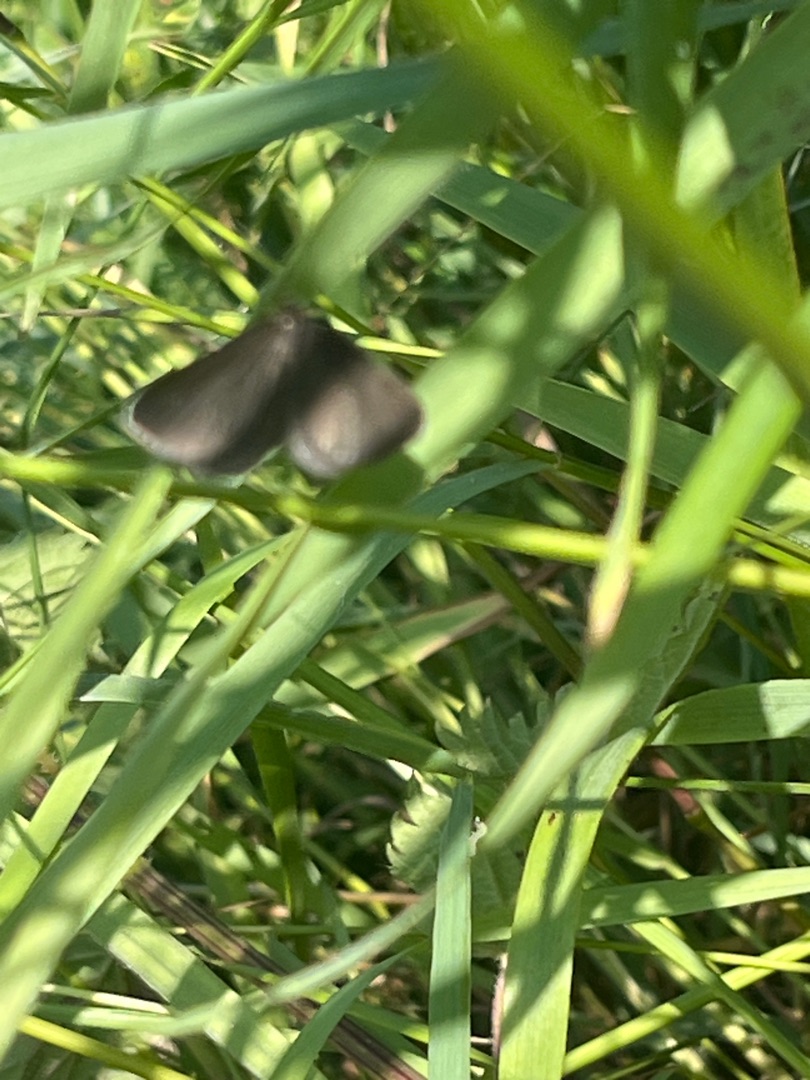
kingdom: Animalia
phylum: Arthropoda
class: Insecta
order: Lepidoptera
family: Geometridae
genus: Odezia
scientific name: Odezia atrata
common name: Sort måler
